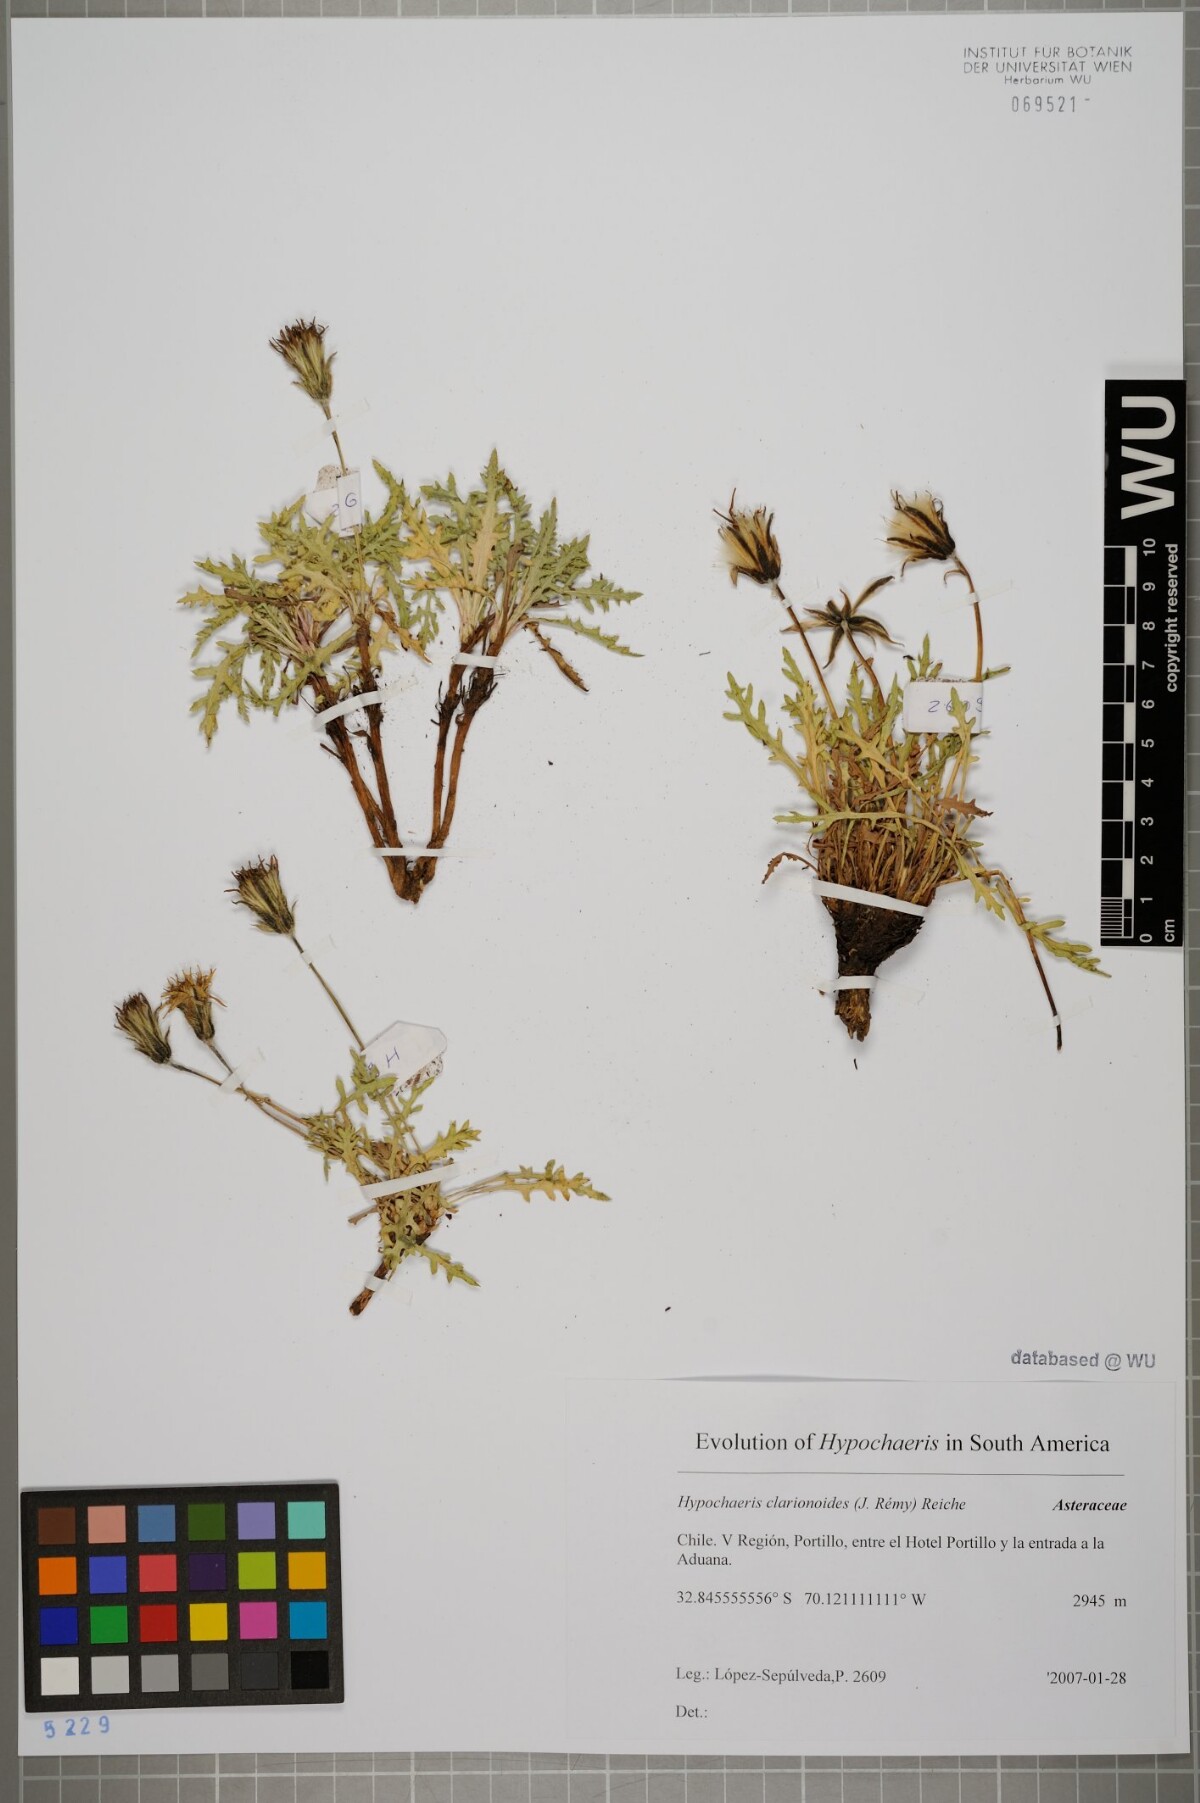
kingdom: Plantae
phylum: Tracheophyta
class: Magnoliopsida
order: Asterales
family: Asteraceae
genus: Hypochaeris
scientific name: Hypochaeris clarionoides
